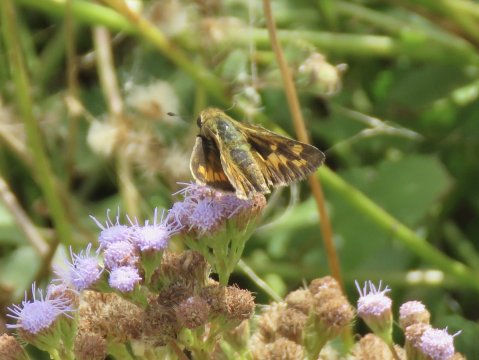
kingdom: Animalia
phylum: Arthropoda
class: Insecta
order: Lepidoptera
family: Hesperiidae
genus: Hylephila
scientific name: Hylephila phyleus
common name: Fiery Skipper
